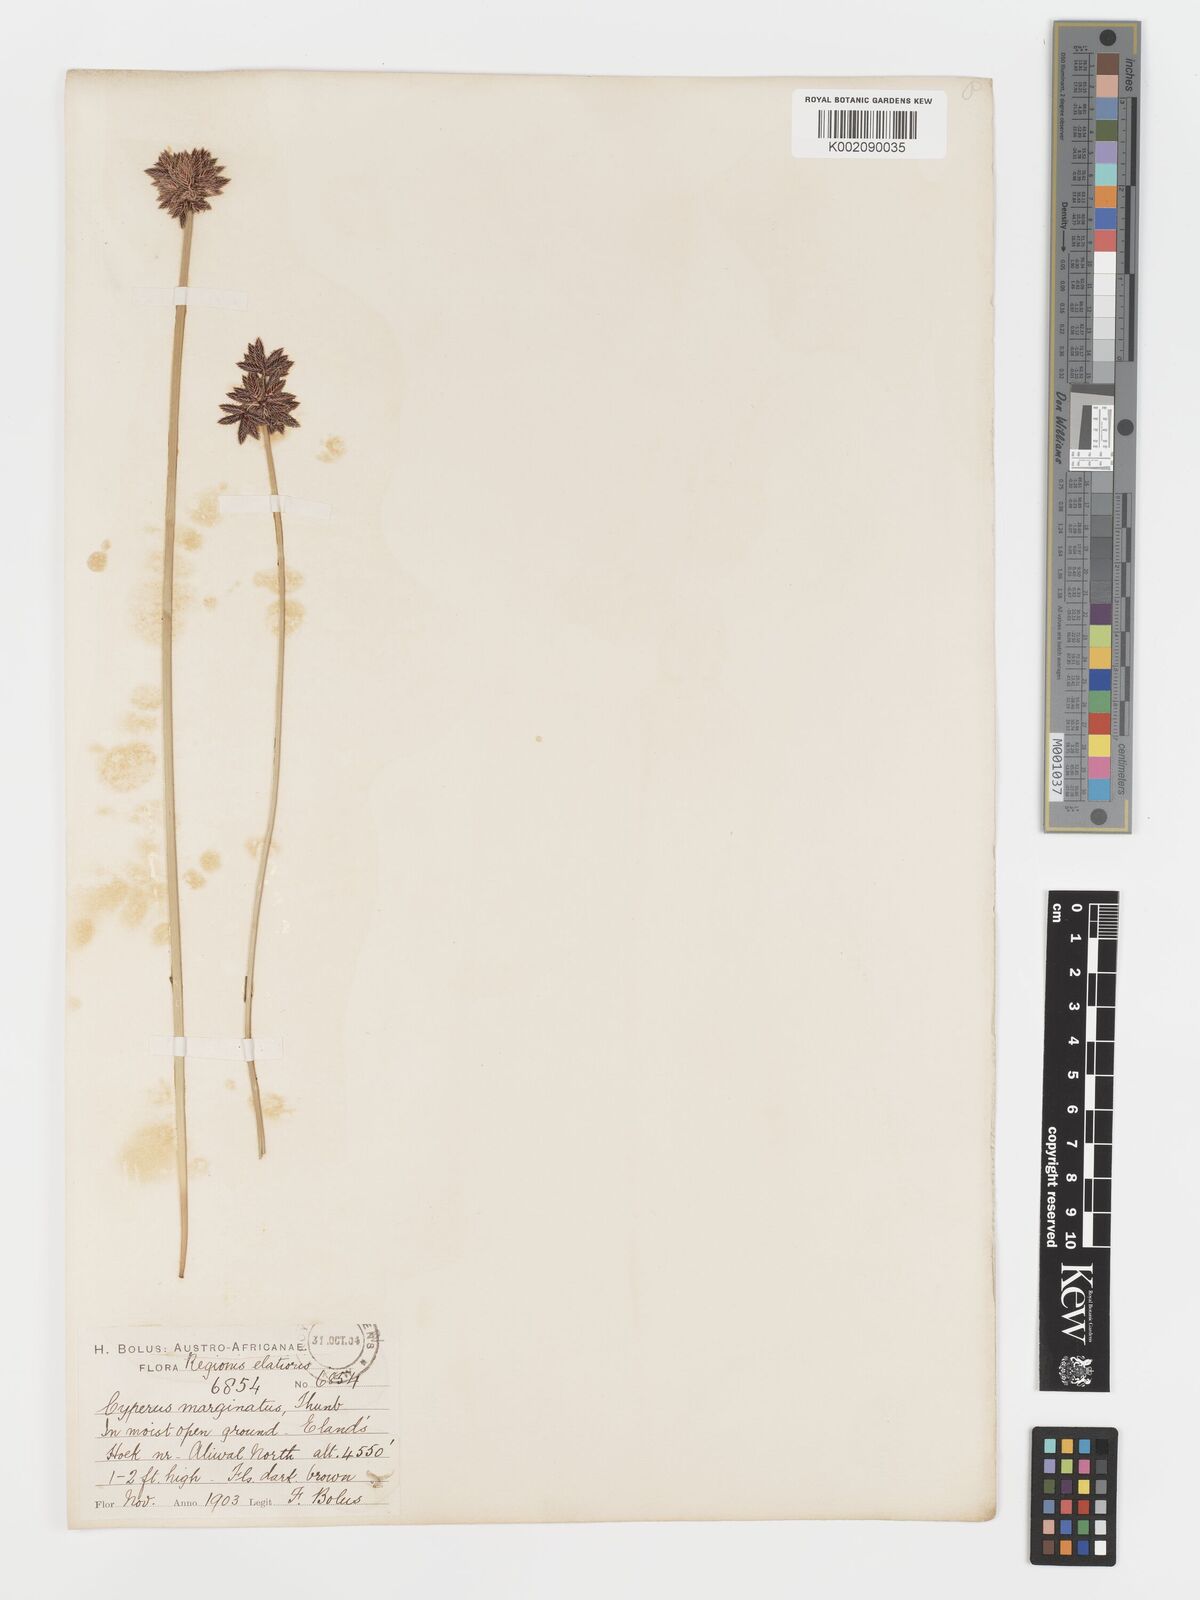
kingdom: Plantae
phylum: Tracheophyta
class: Liliopsida
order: Poales
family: Cyperaceae
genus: Cyperus
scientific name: Cyperus marginatus
